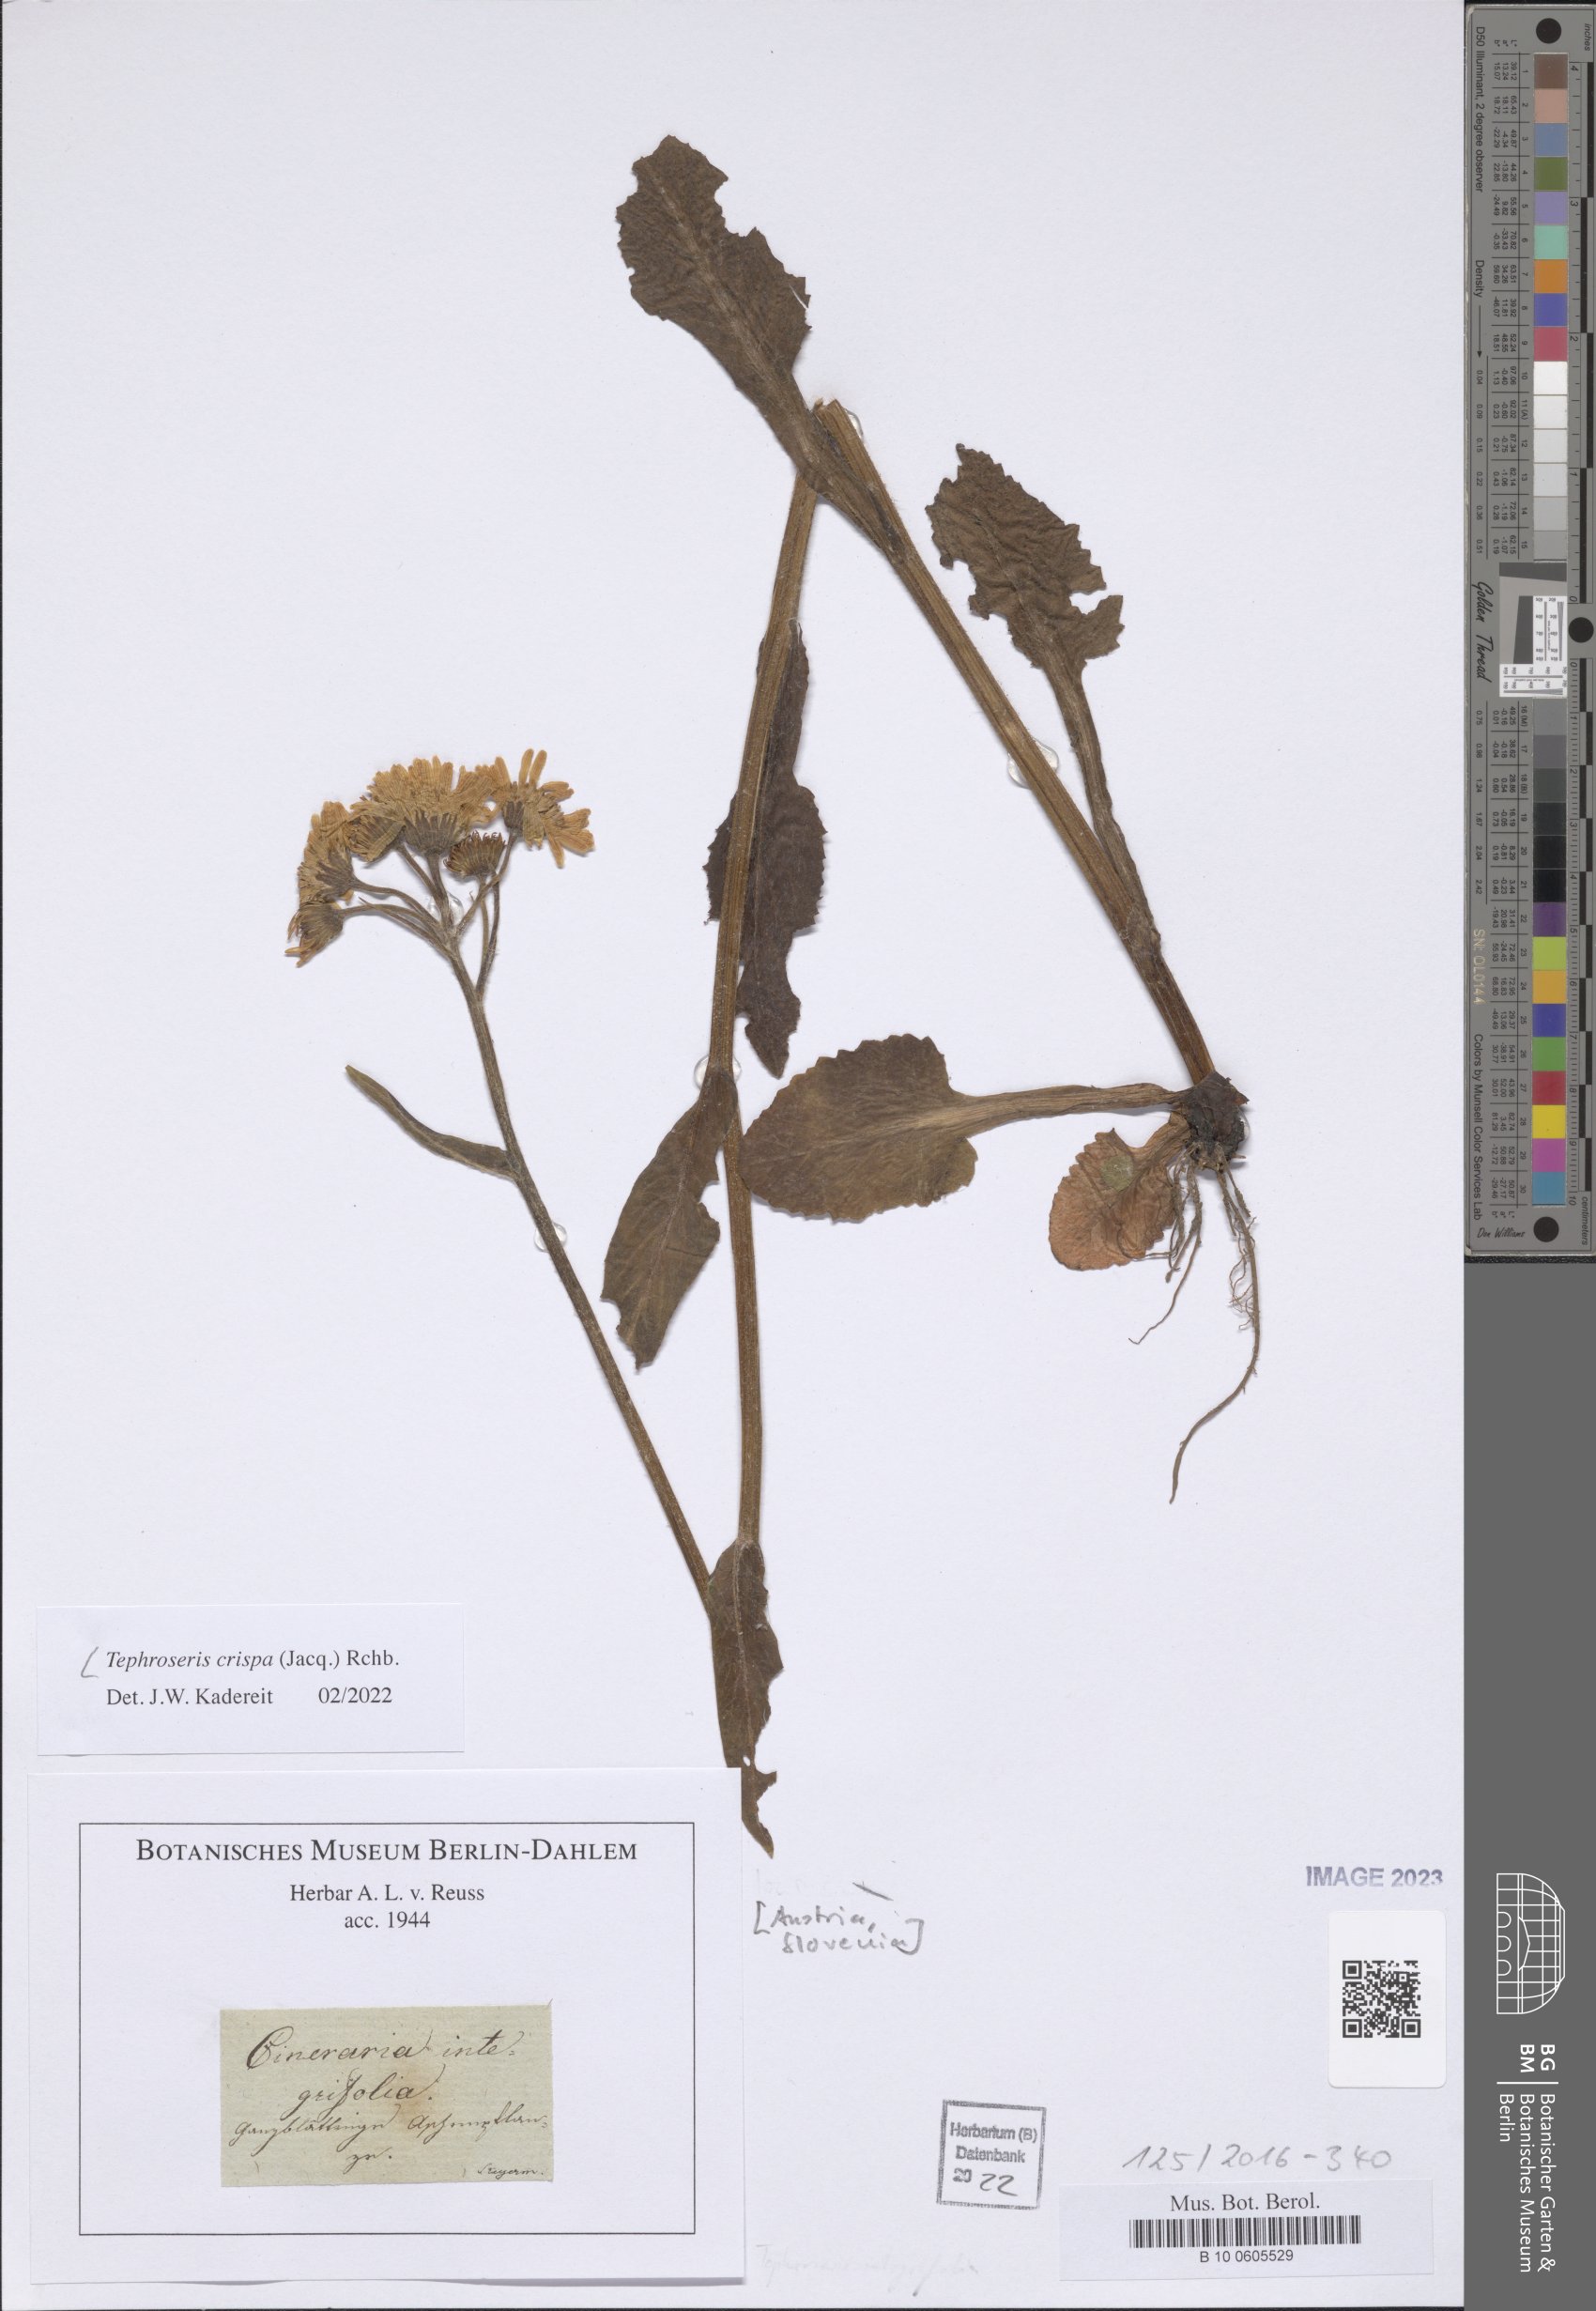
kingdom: Plantae
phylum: Tracheophyta
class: Magnoliopsida
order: Asterales
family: Asteraceae
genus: Tephroseris
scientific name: Tephroseris crispa
